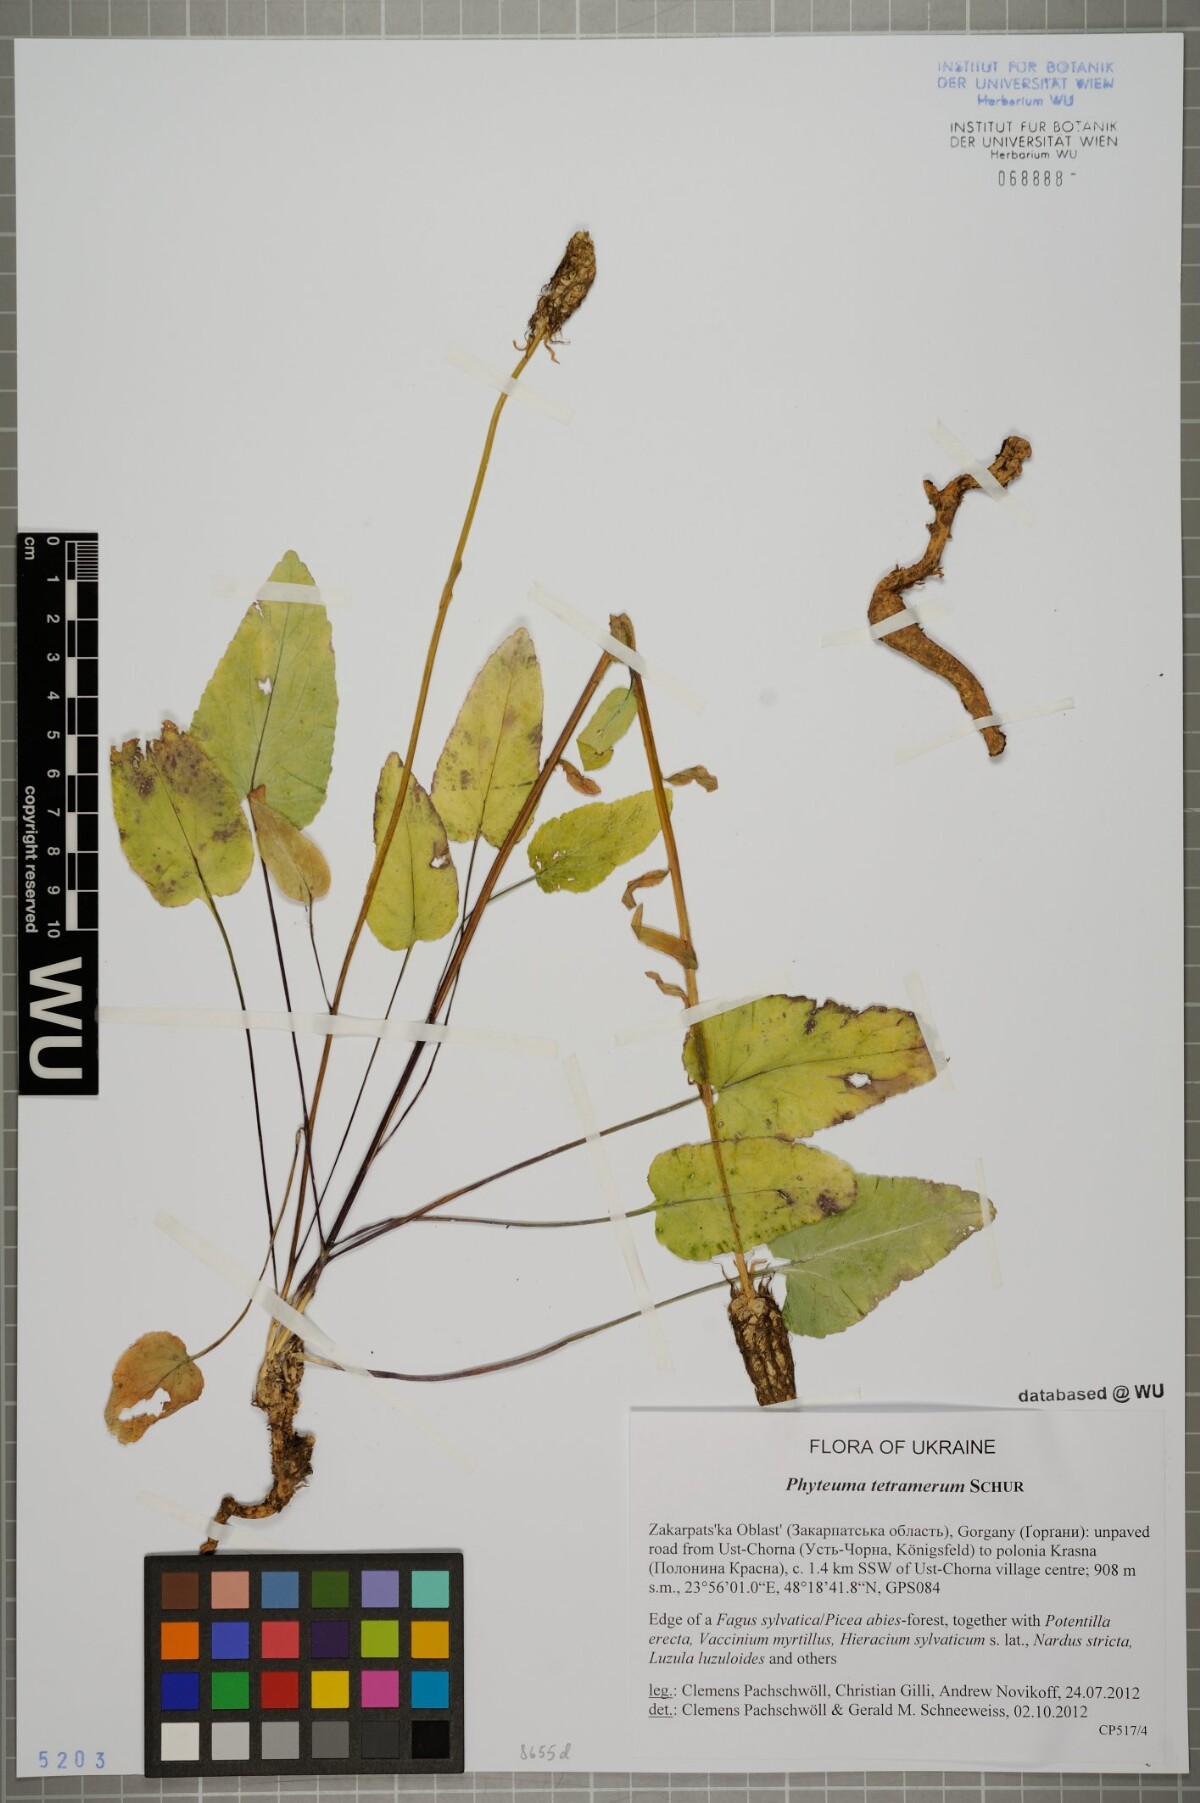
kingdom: Plantae
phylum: Tracheophyta
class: Magnoliopsida
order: Asterales
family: Campanulaceae
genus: Phyteuma
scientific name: Phyteuma tetramerum
